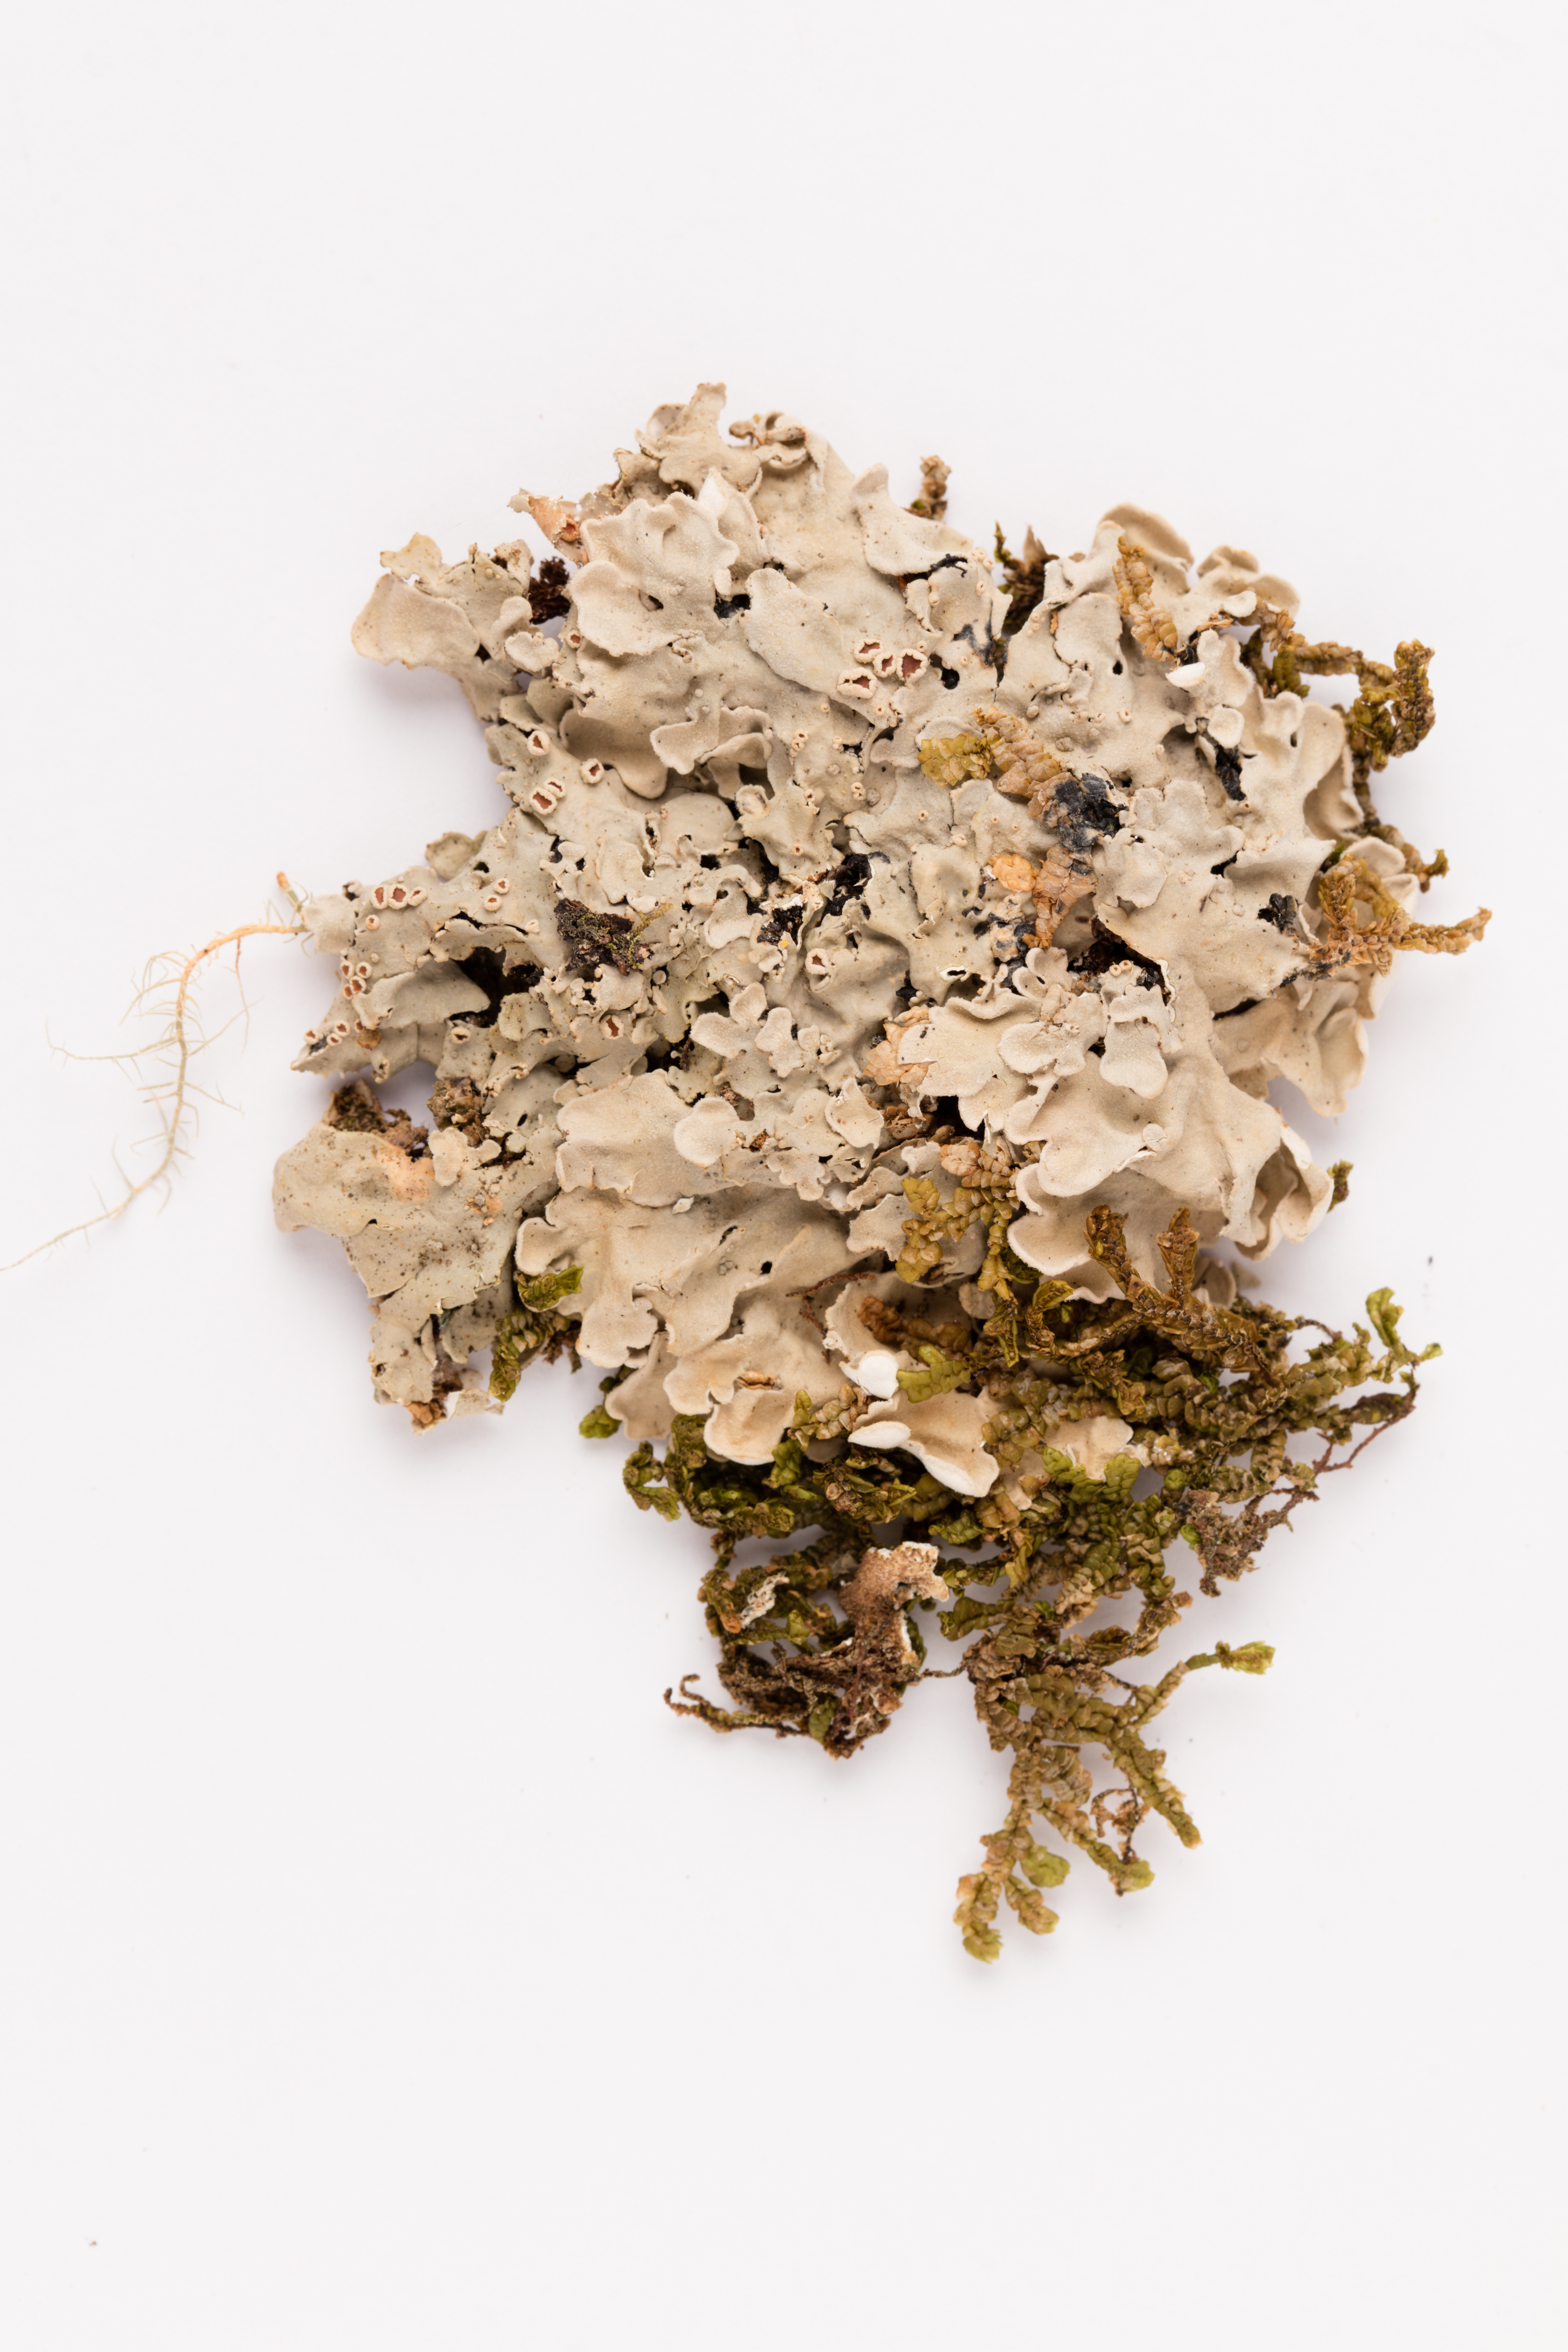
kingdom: Fungi
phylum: Ascomycota
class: Lecanoromycetes
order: Peltigerales
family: Lobariaceae
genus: Pseudocyphellaria
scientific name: Pseudocyphellaria coriacea
